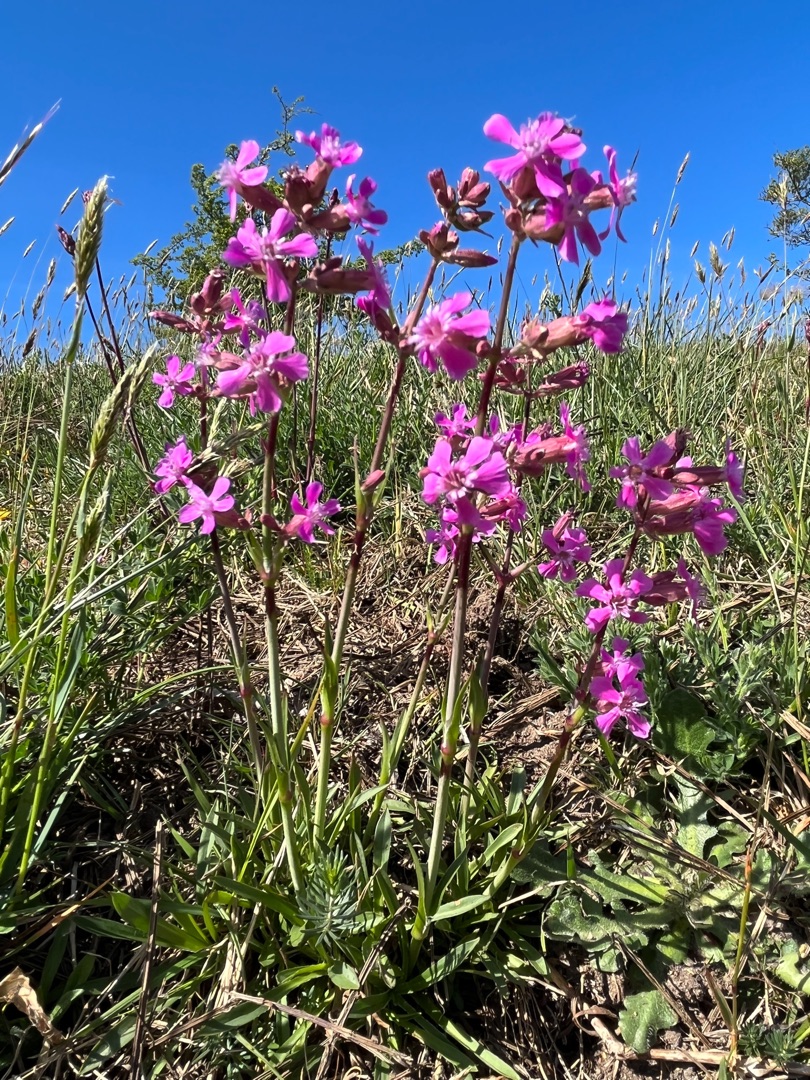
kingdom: Plantae
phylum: Tracheophyta
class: Magnoliopsida
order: Caryophyllales
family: Caryophyllaceae
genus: Viscaria
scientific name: Viscaria vulgaris
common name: Tjærenellike
